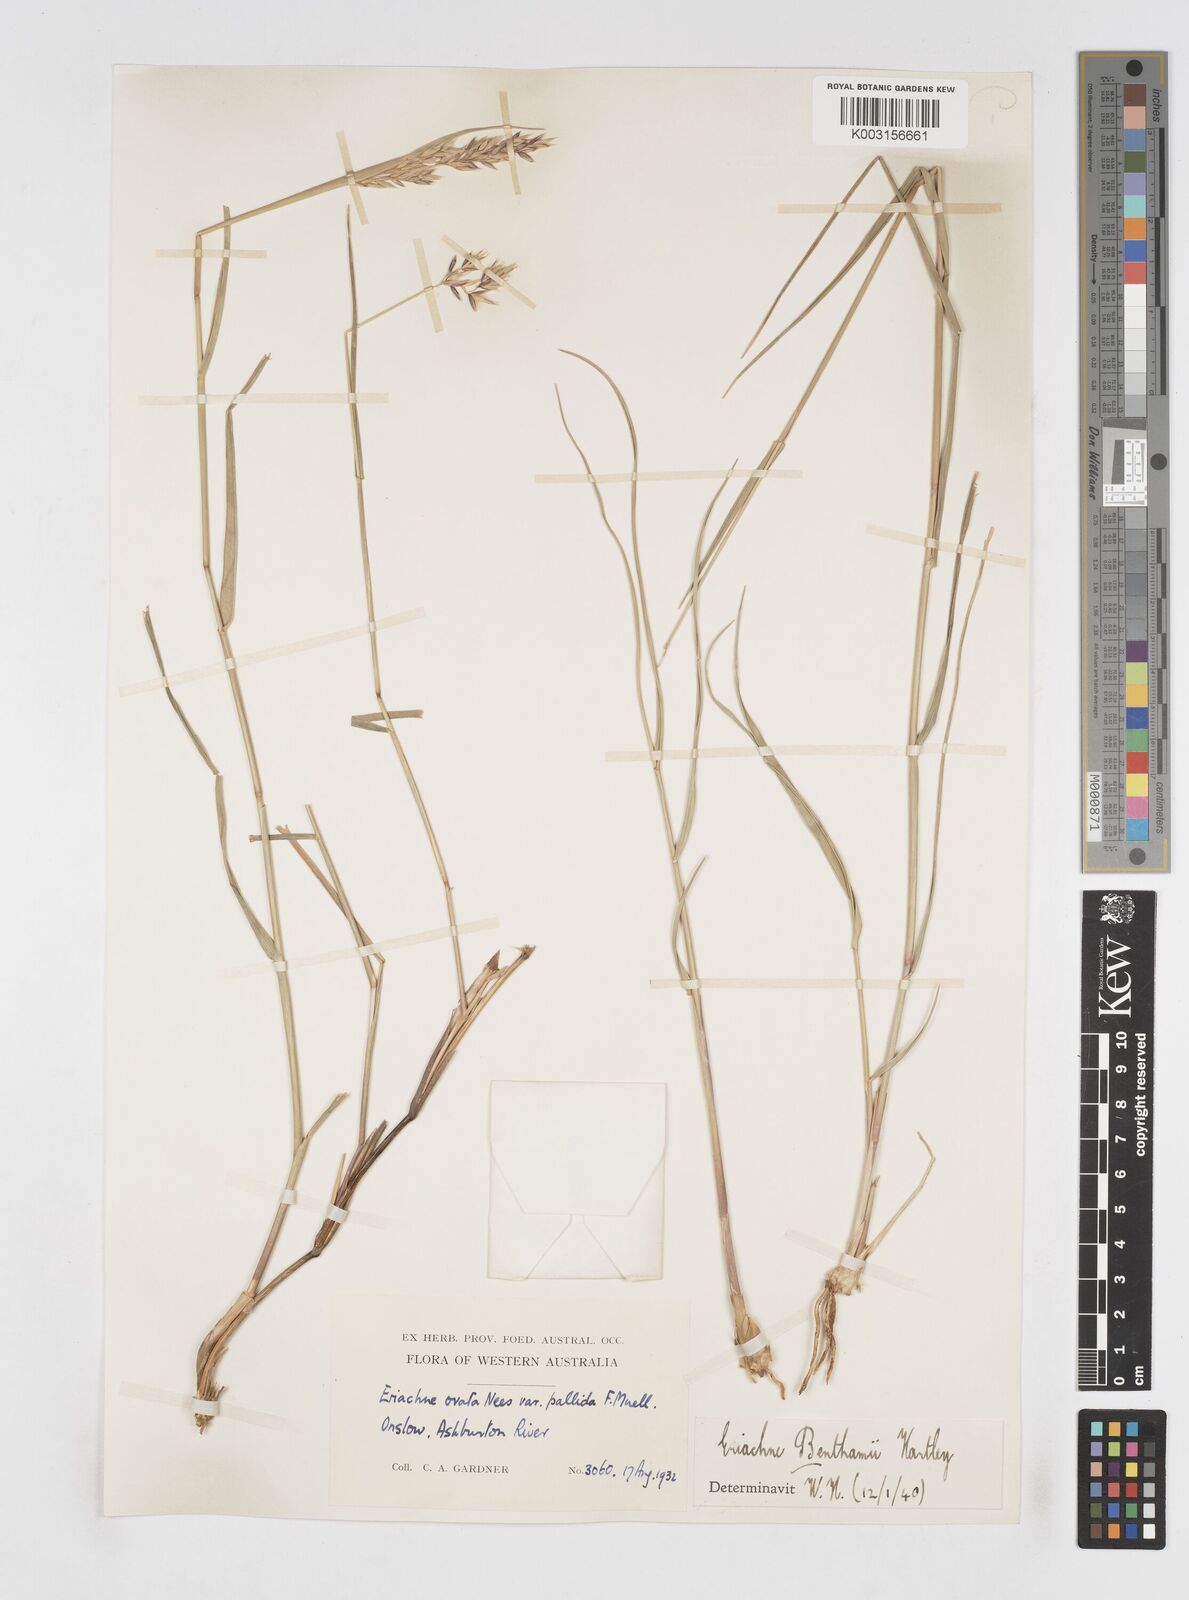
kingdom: Plantae
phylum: Tracheophyta
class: Liliopsida
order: Poales
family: Poaceae
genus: Eriachne
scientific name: Eriachne benthamii
